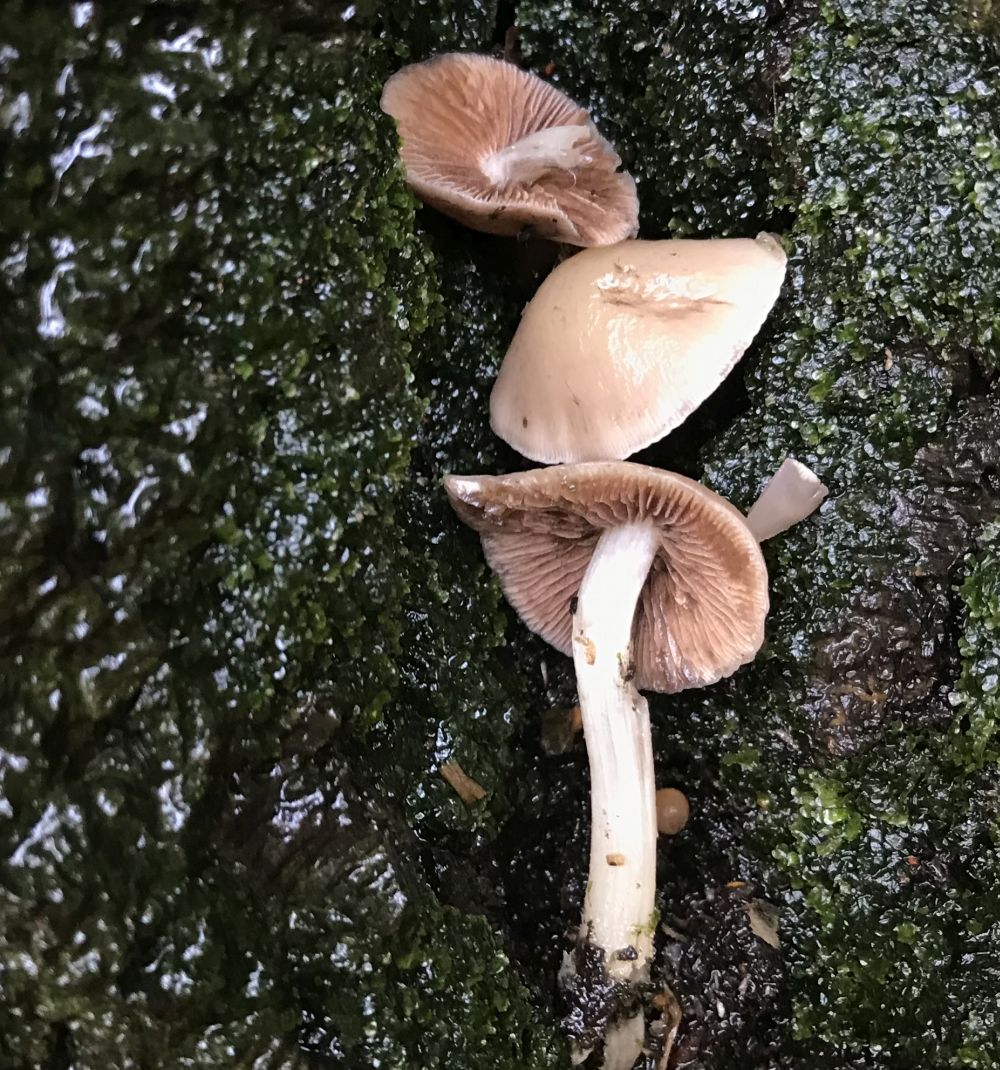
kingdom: Fungi
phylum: Basidiomycota
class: Agaricomycetes
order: Agaricales
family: Psathyrellaceae
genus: Psathyrella
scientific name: Psathyrella piluliformis
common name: lysstokket mørkhat
